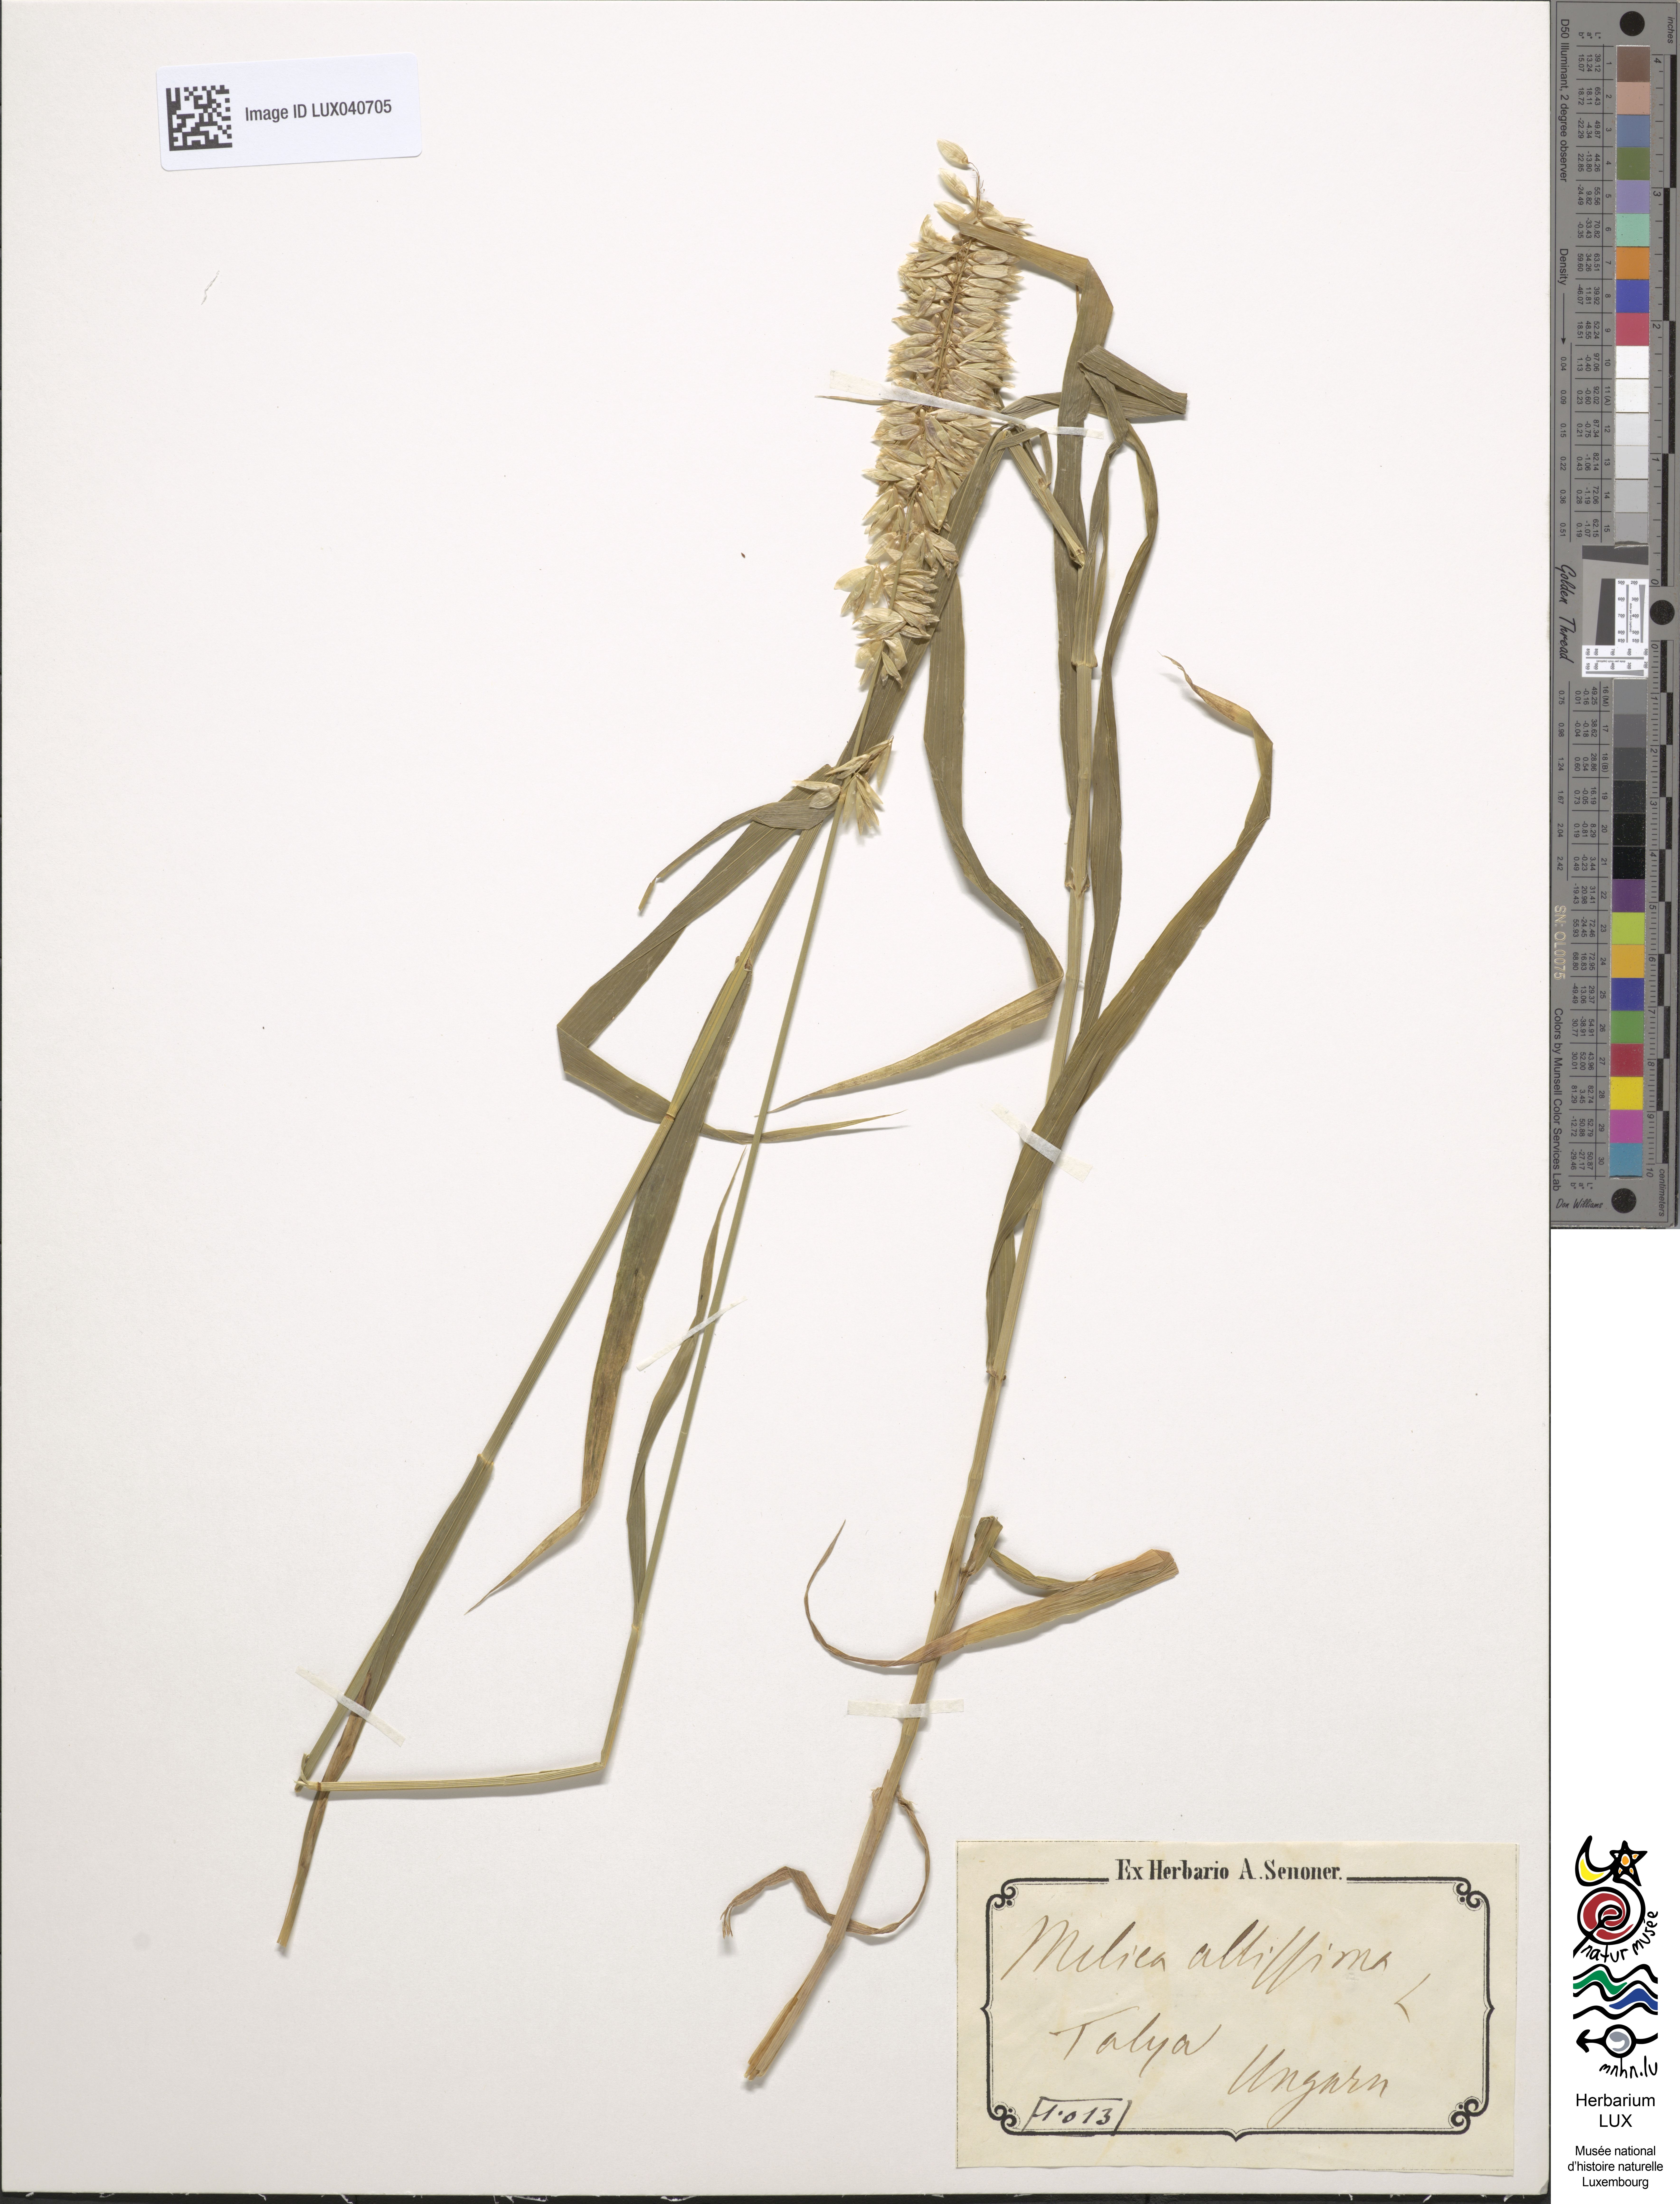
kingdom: Plantae
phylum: Tracheophyta
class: Liliopsida
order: Poales
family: Poaceae
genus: Melica
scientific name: Melica altissima
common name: Siberian melicgrass
